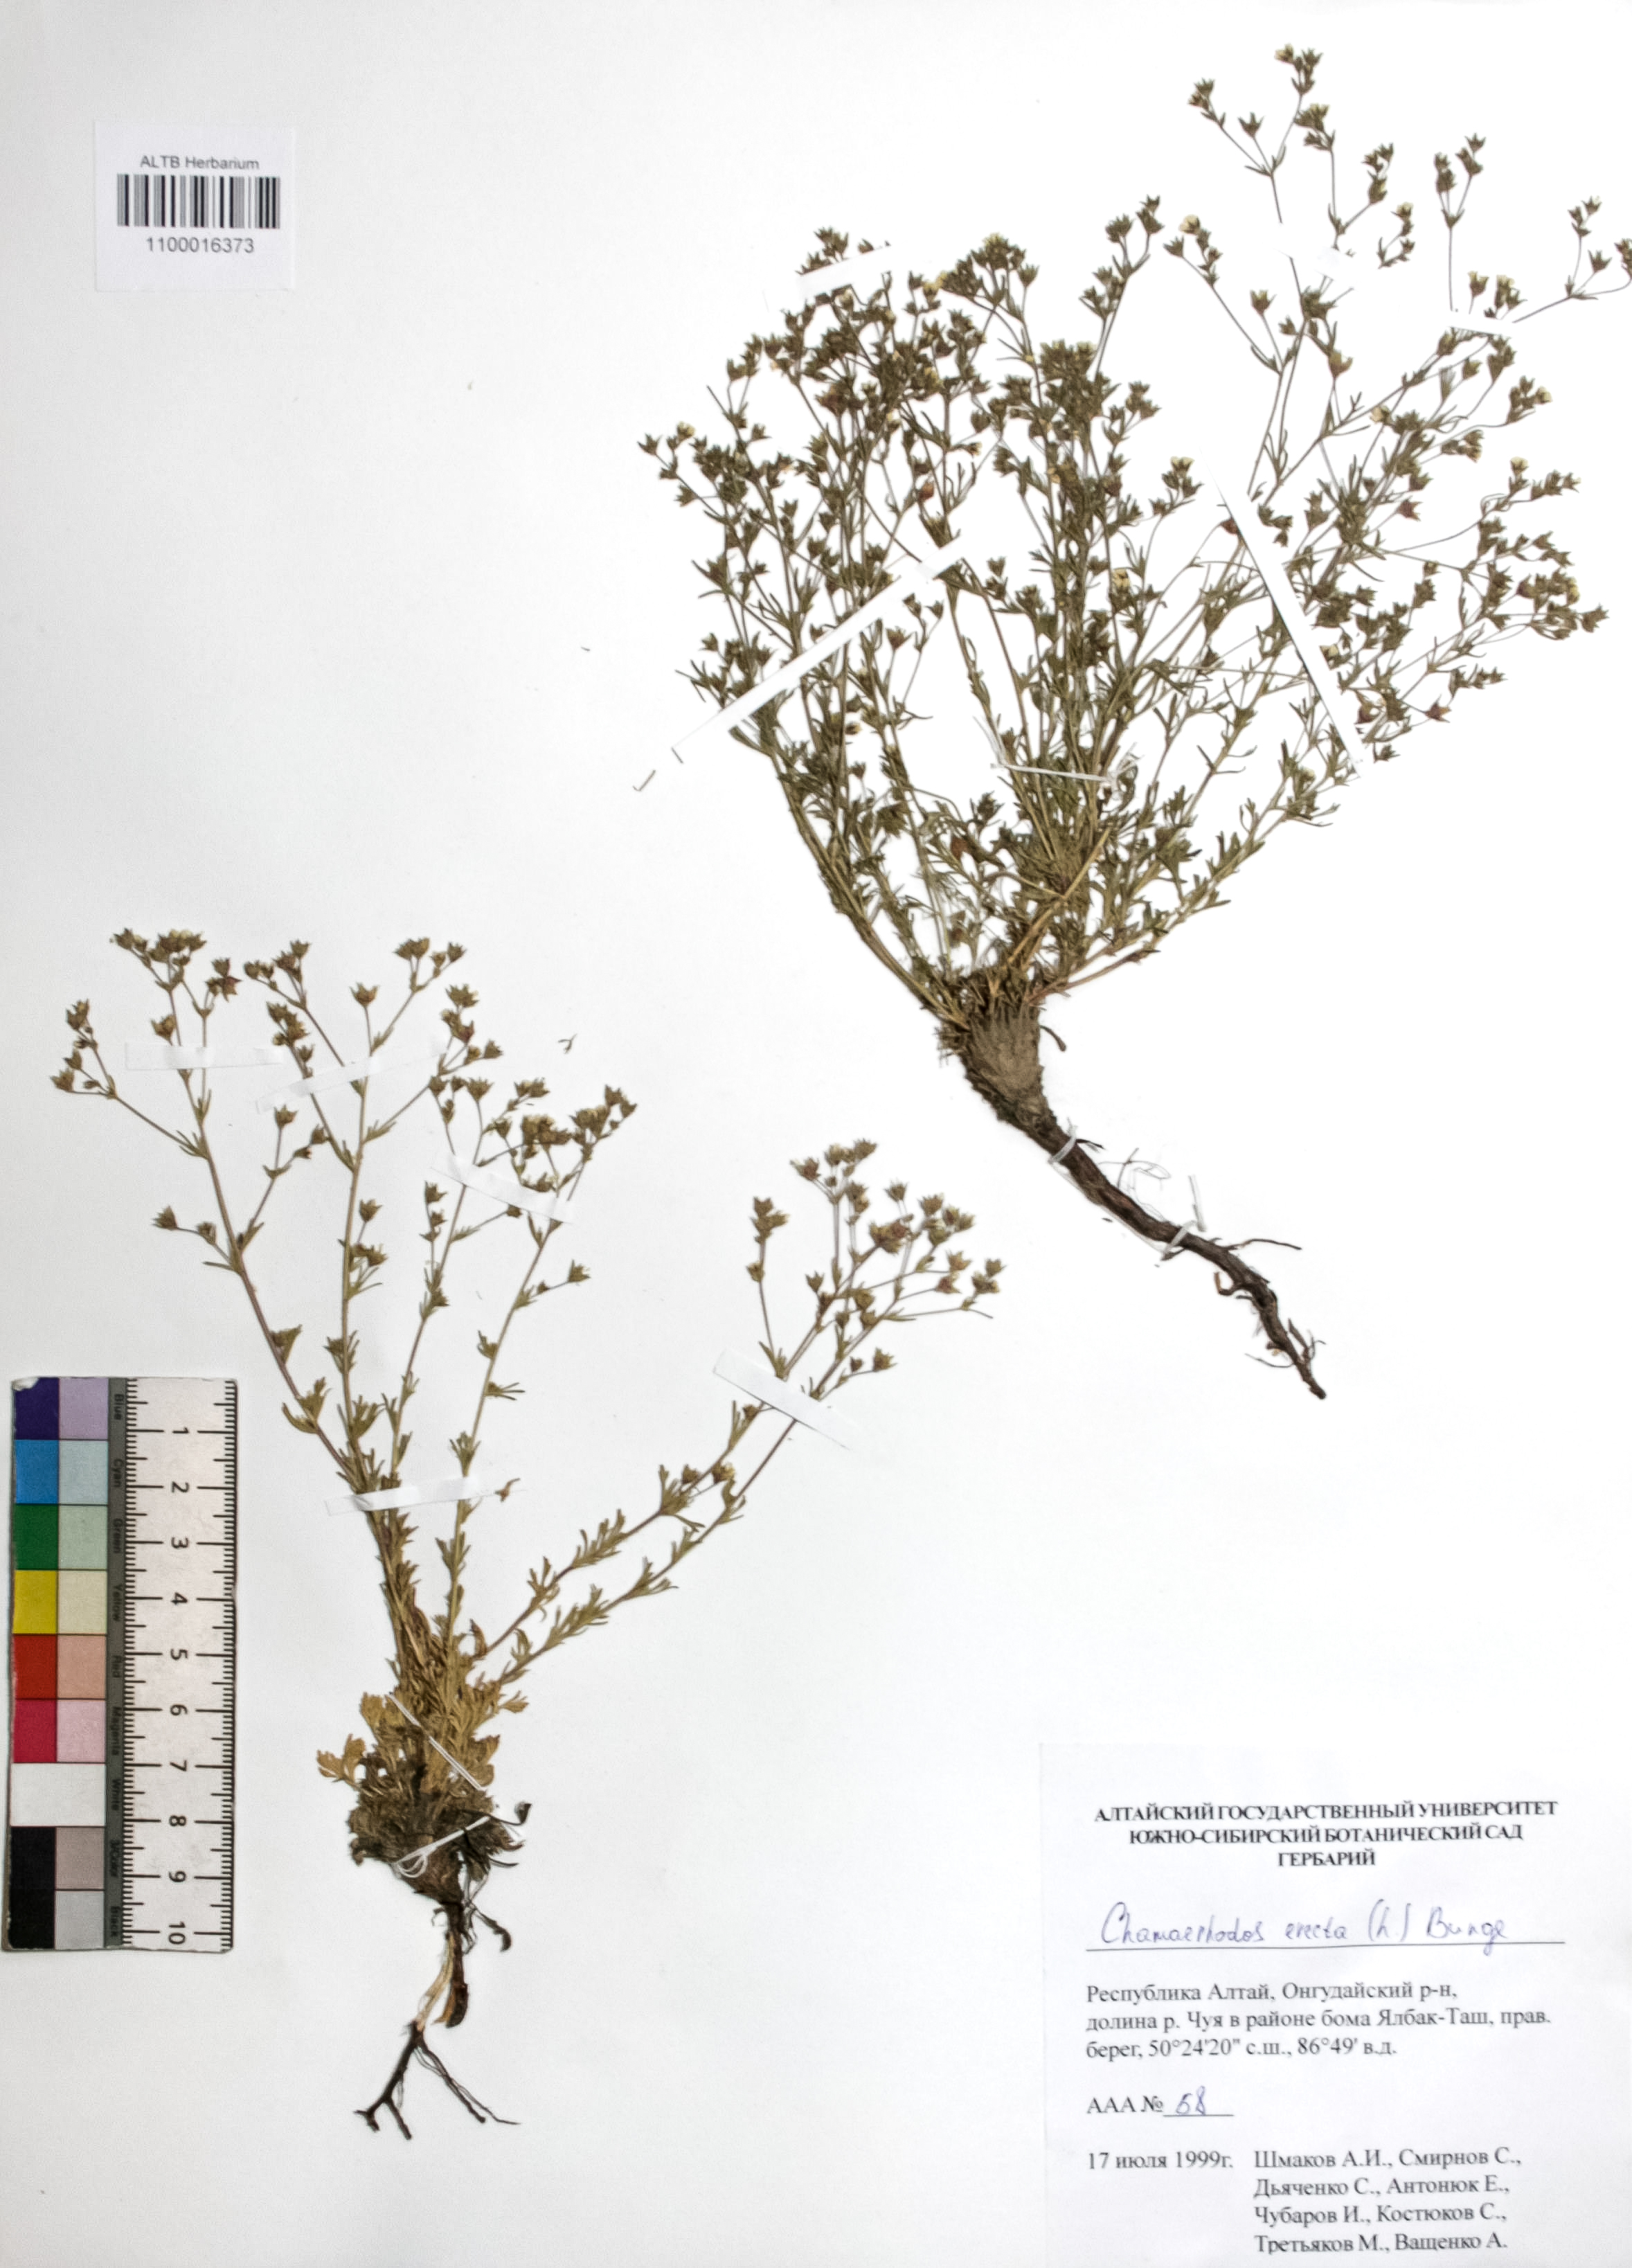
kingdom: Plantae
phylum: Tracheophyta
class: Magnoliopsida
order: Rosales
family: Rosaceae
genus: Chamaerhodos
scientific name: Chamaerhodos erecta
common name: American chamaerhodos
